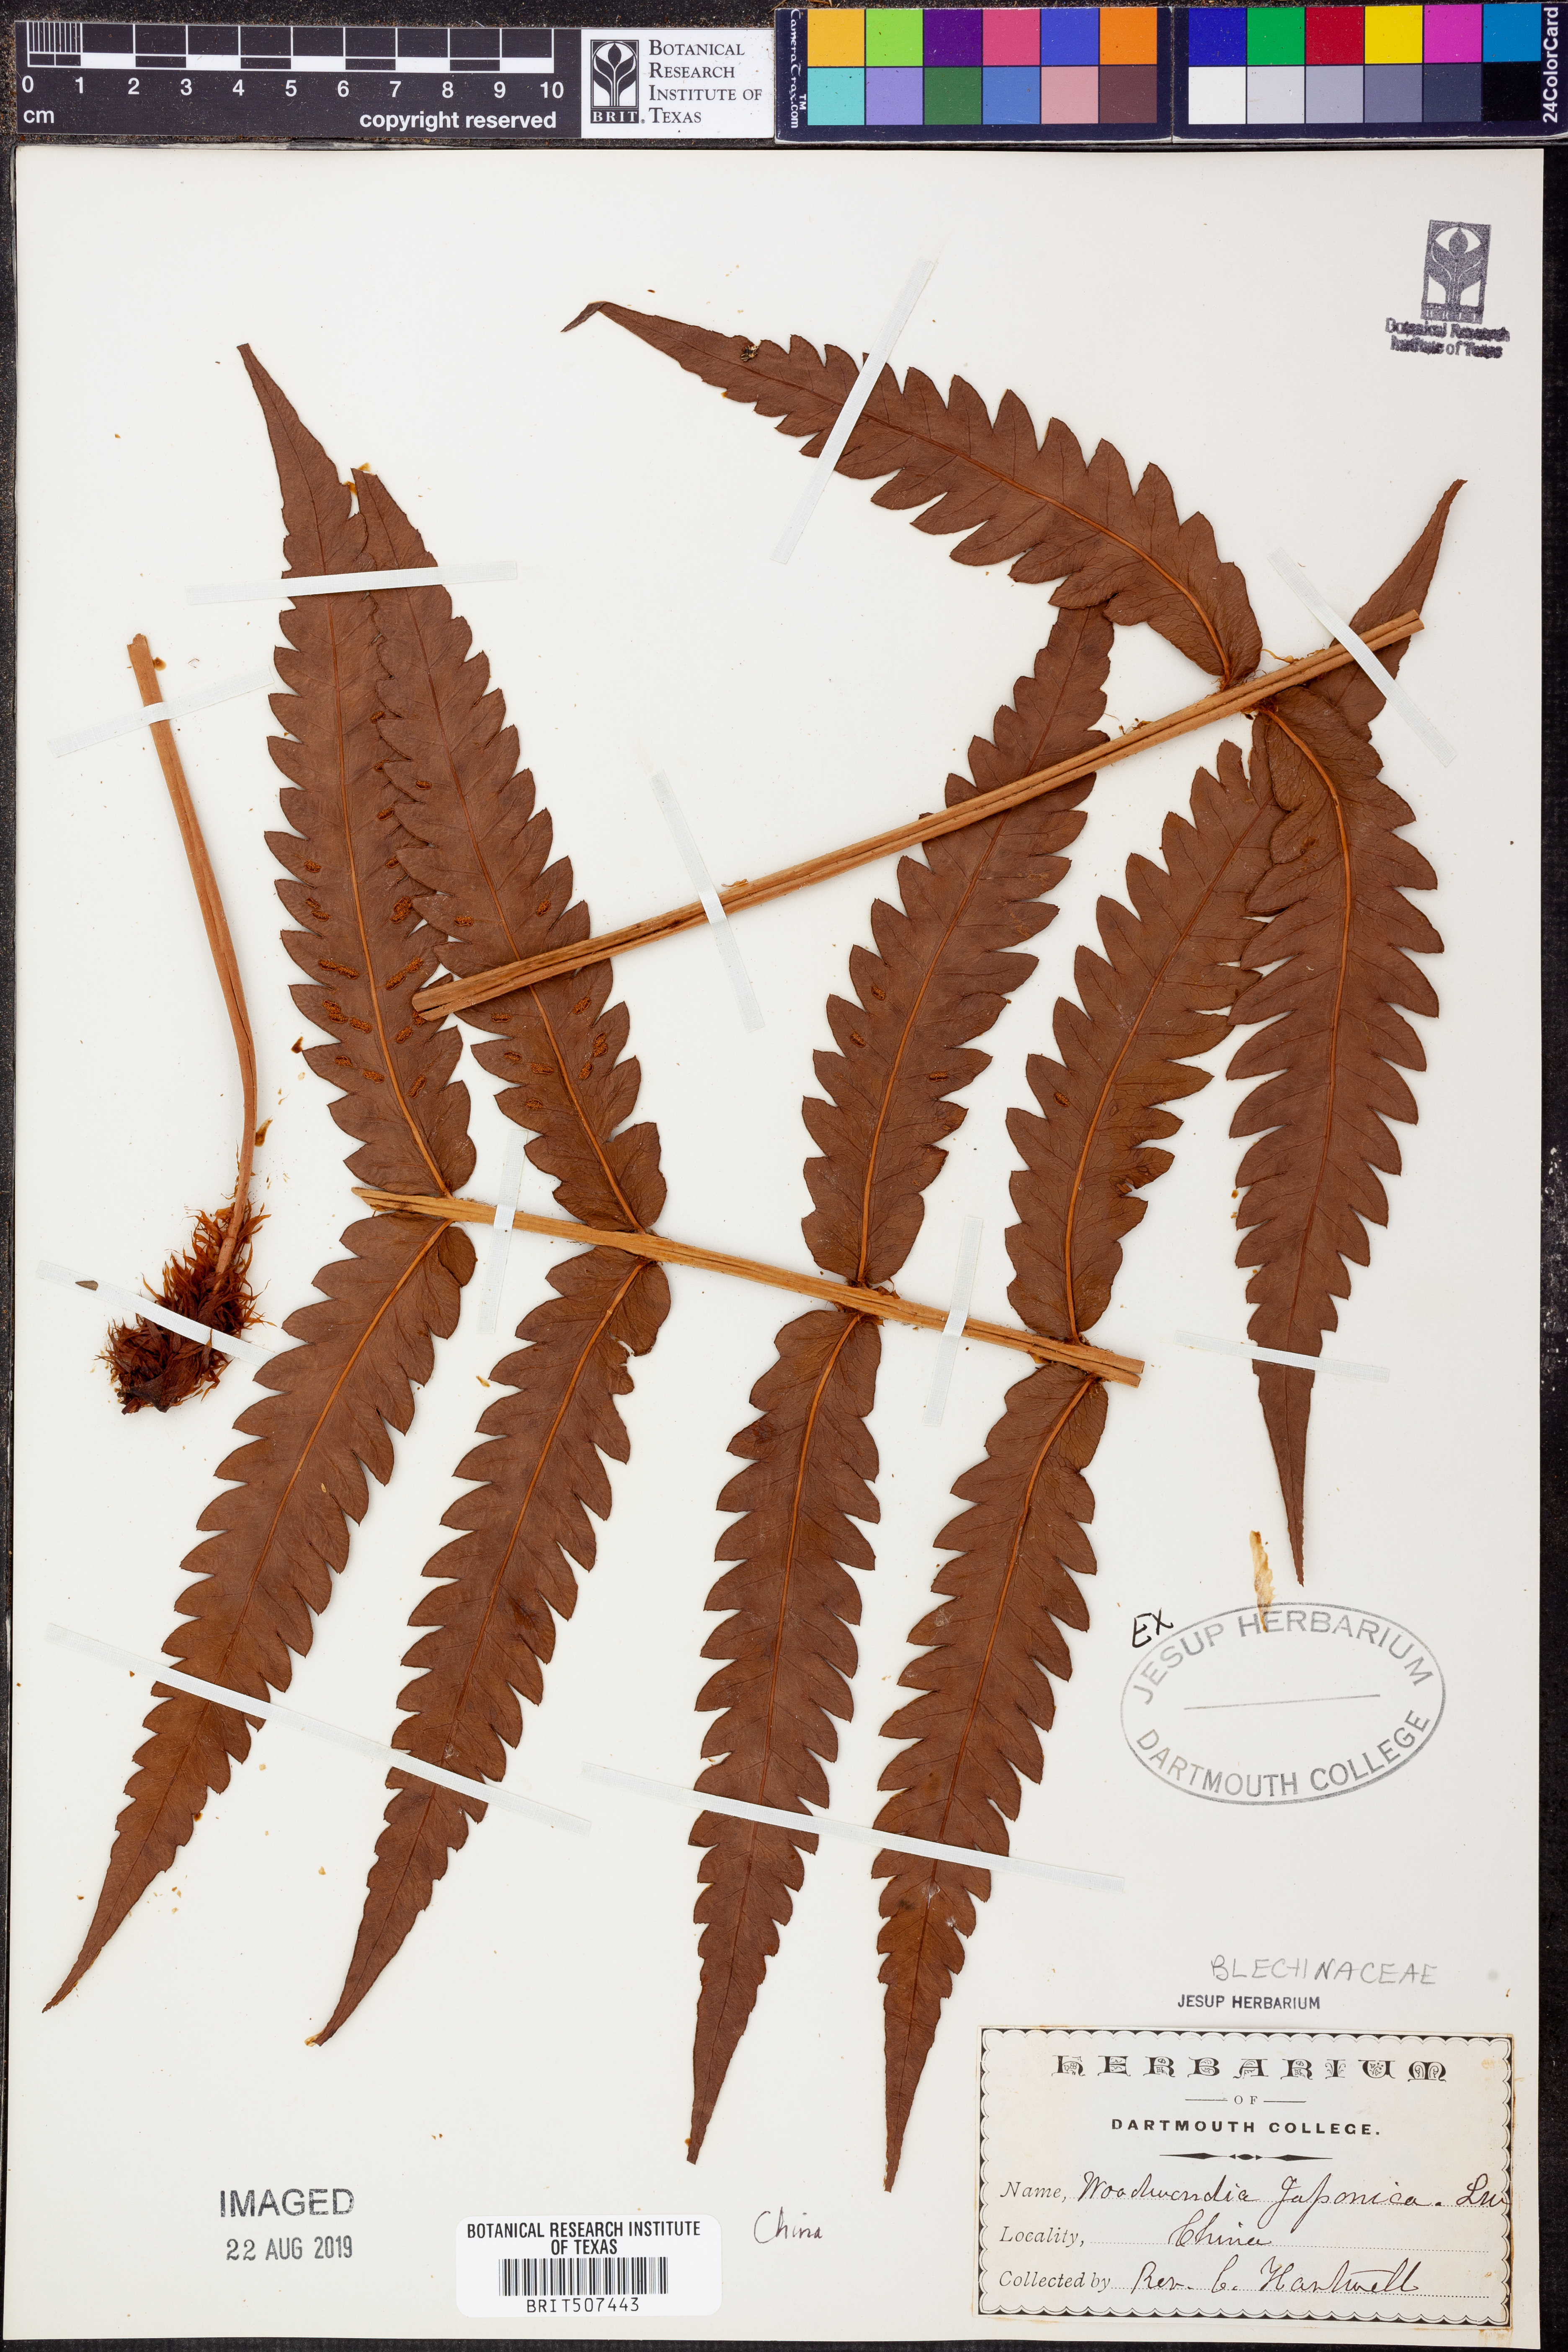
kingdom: Plantae
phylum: Tracheophyta
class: Polypodiopsida
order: Polypodiales
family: Blechnaceae
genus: Woodwardia
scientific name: Woodwardia japonica
